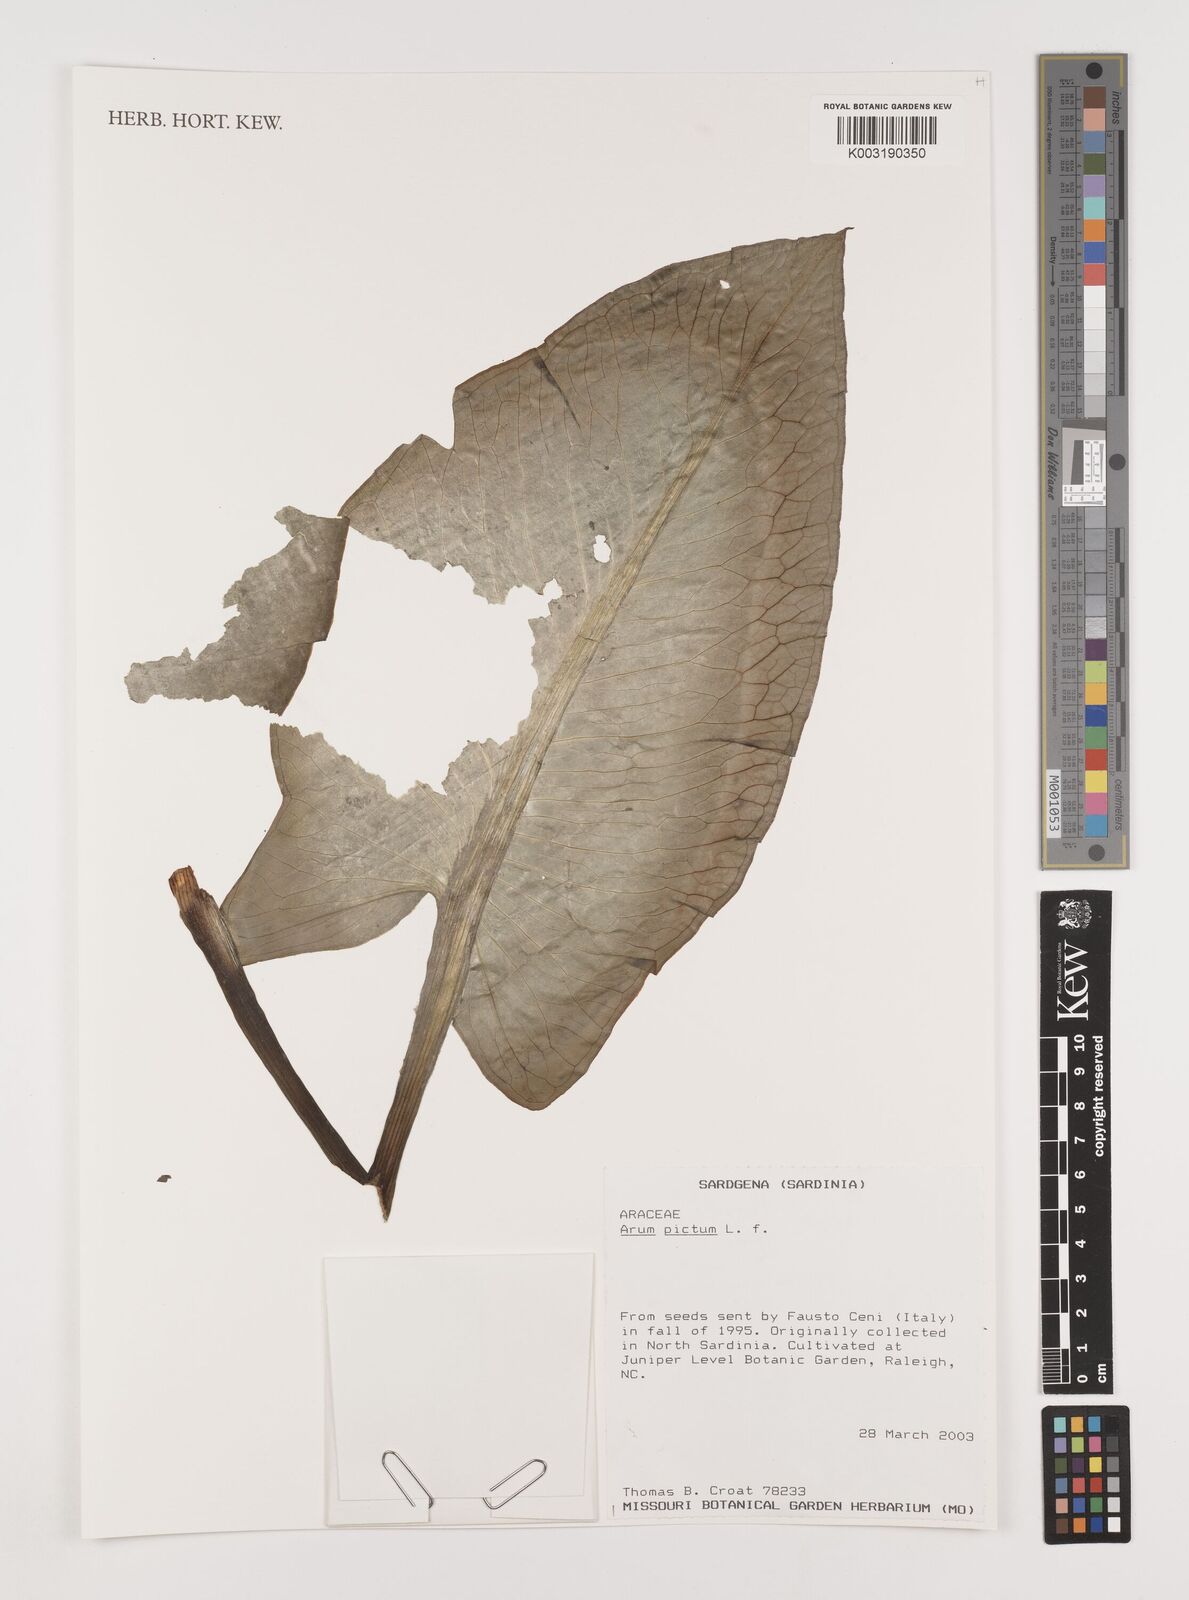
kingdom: Plantae
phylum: Tracheophyta
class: Liliopsida
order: Alismatales
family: Araceae
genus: Arum
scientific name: Arum pictum
